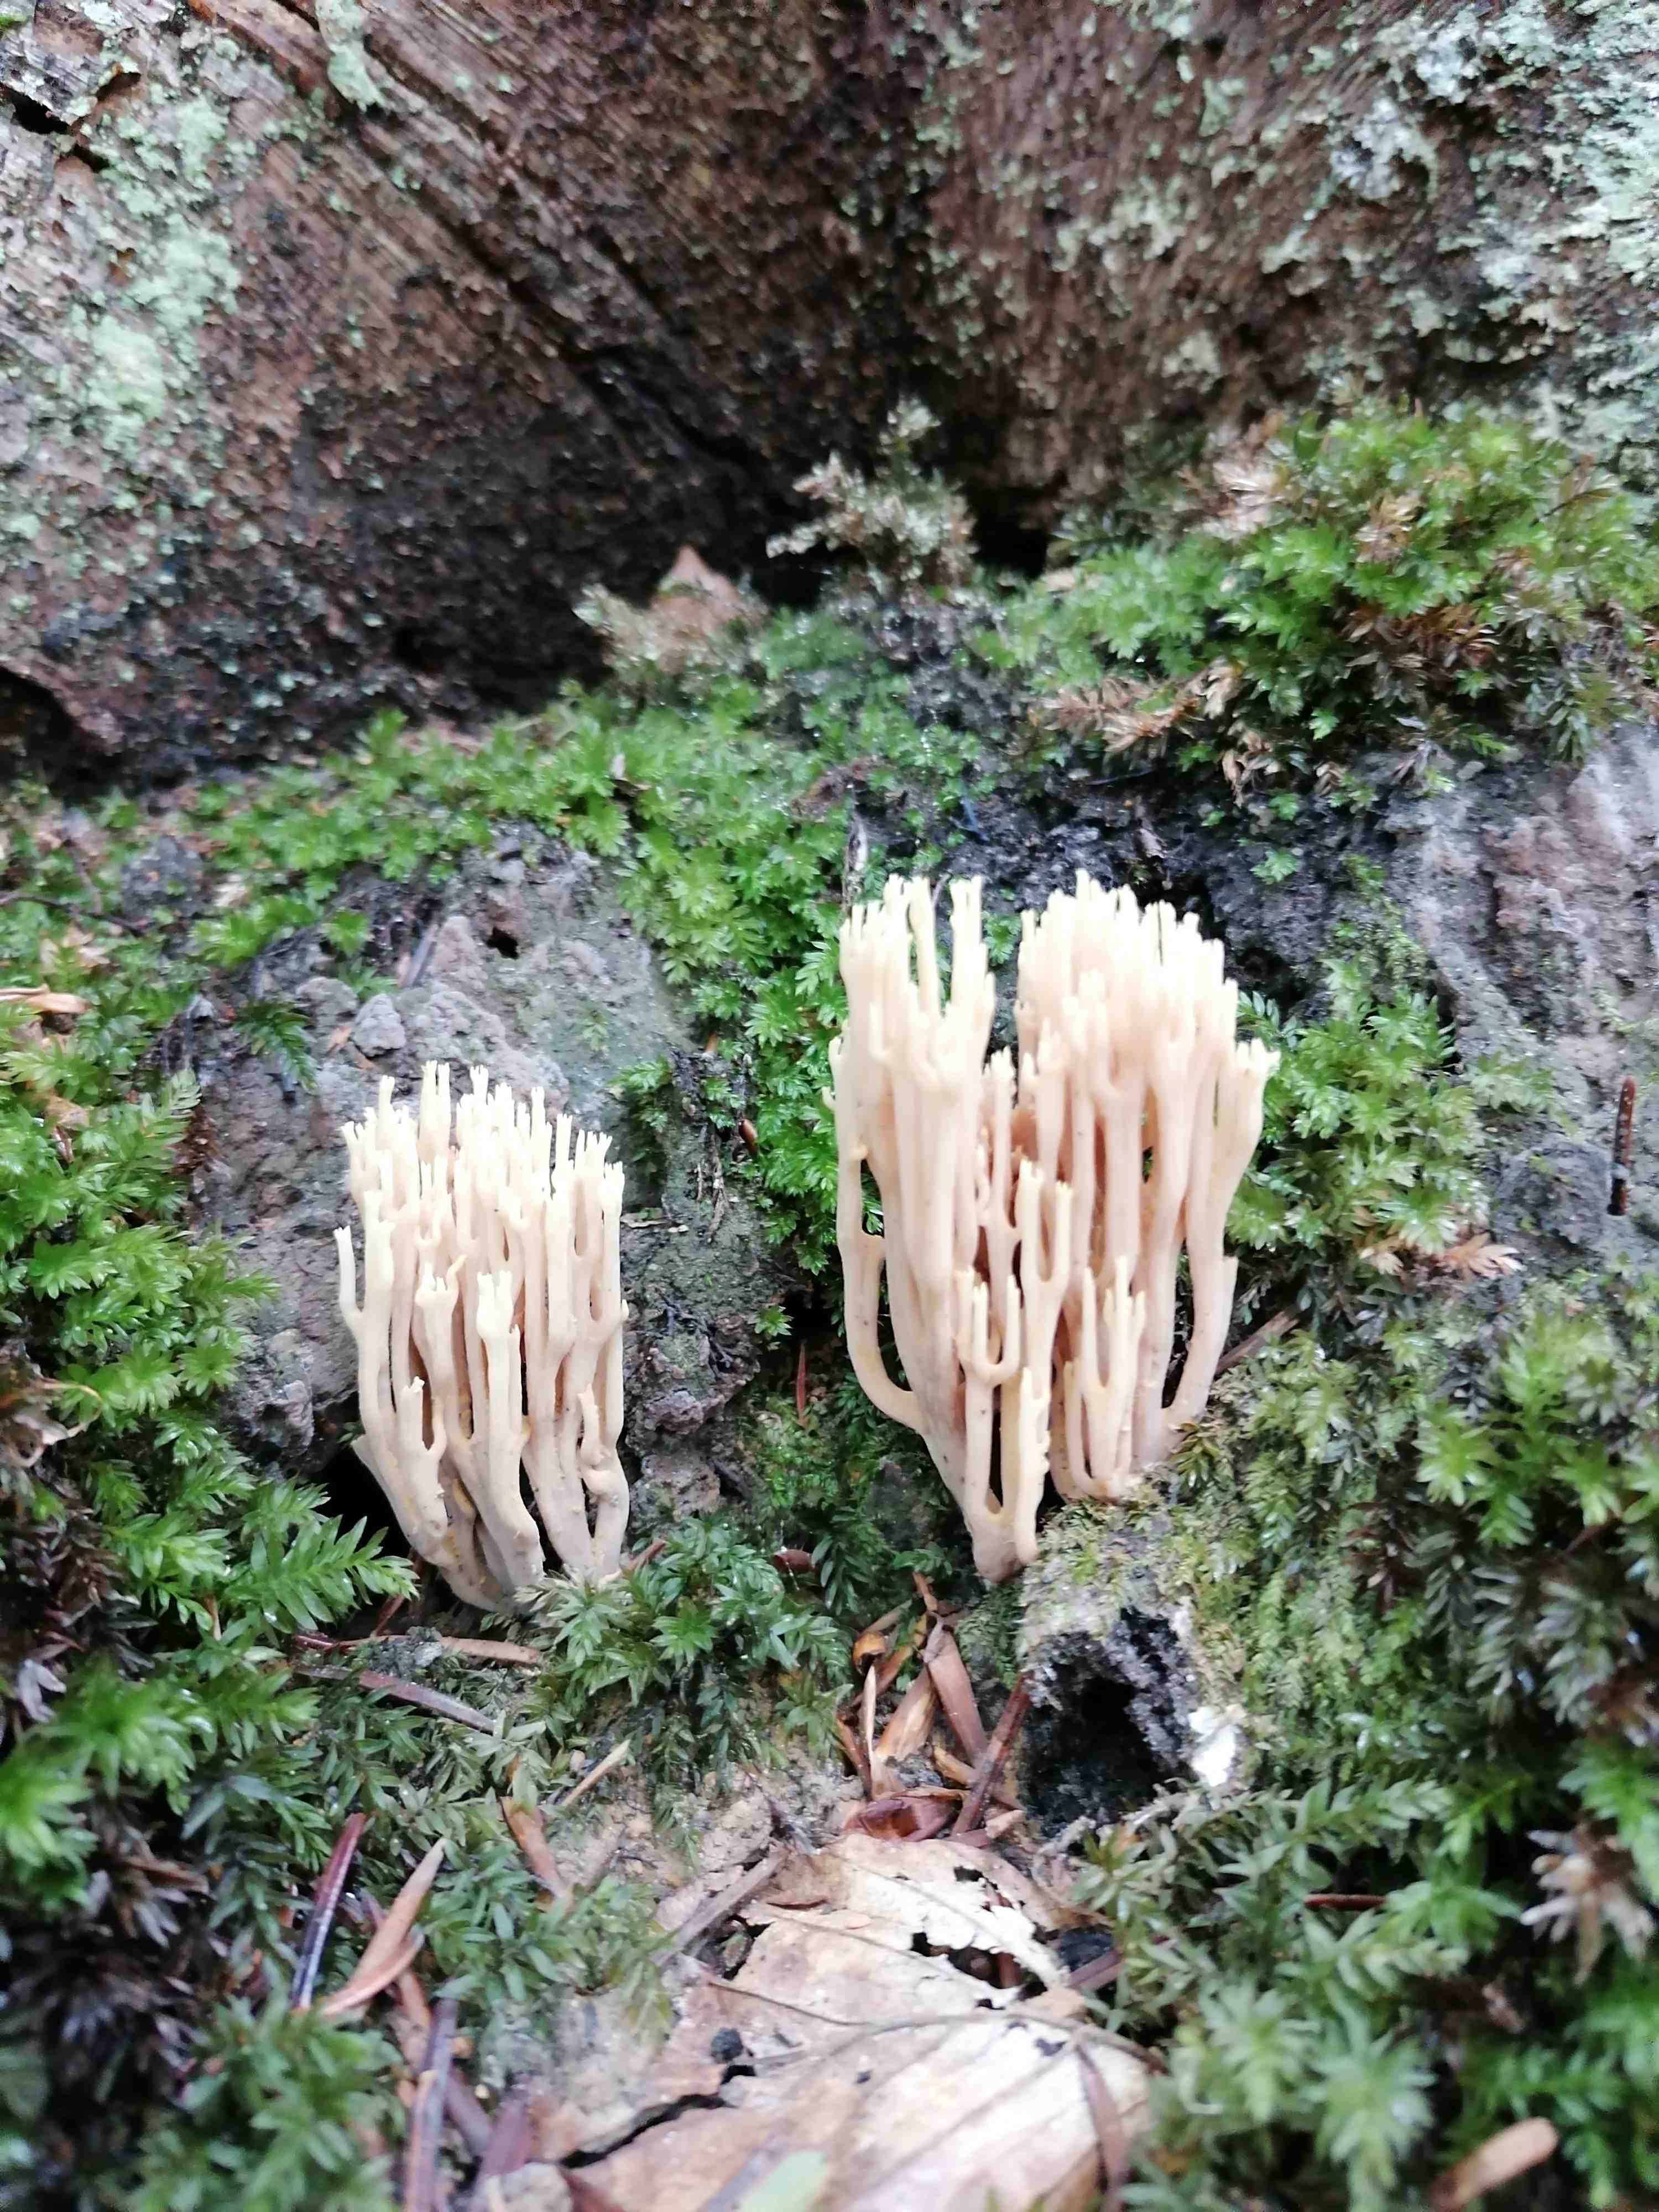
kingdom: Fungi
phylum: Basidiomycota
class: Agaricomycetes
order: Gomphales
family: Gomphaceae
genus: Ramaria
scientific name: Ramaria stricta
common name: rank koralsvamp
